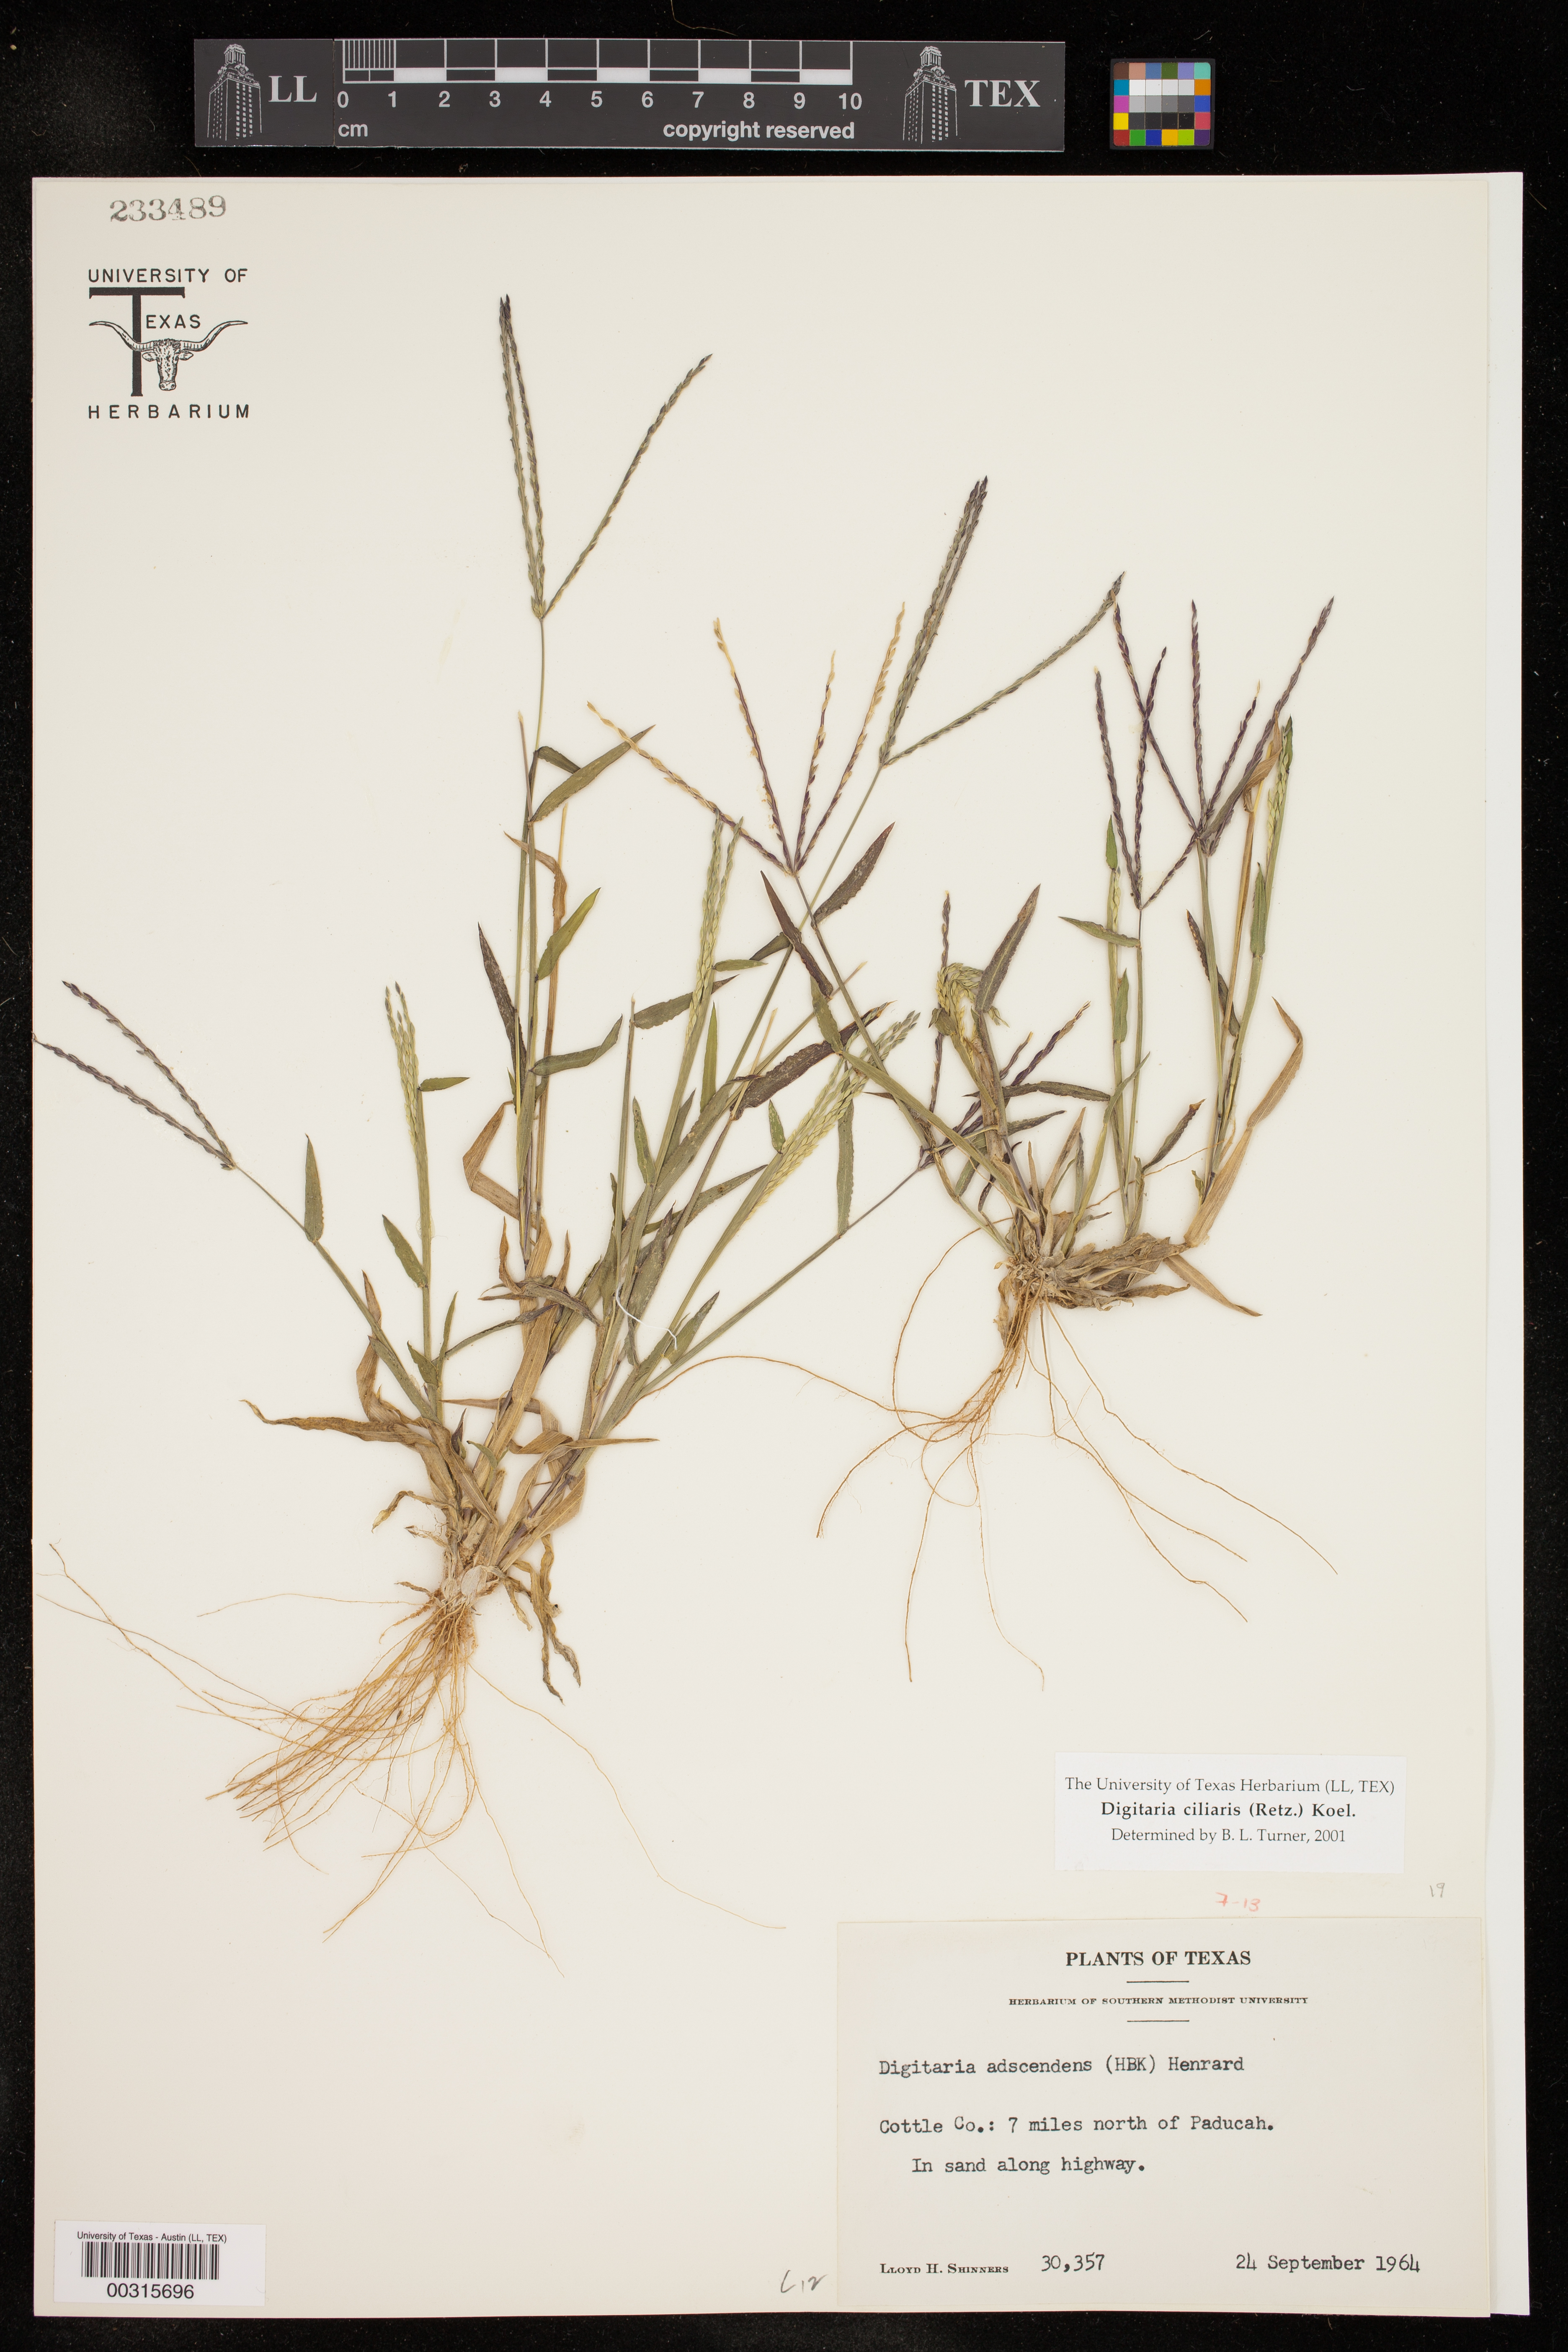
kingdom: Plantae
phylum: Tracheophyta
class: Liliopsida
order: Poales
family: Poaceae
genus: Digitaria
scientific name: Digitaria ciliaris
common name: Tropical finger-grass
